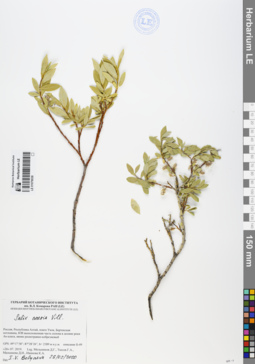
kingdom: Plantae
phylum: Tracheophyta
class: Magnoliopsida
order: Malpighiales
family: Salicaceae
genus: Salix
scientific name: Salix caesia
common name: Blue willow
